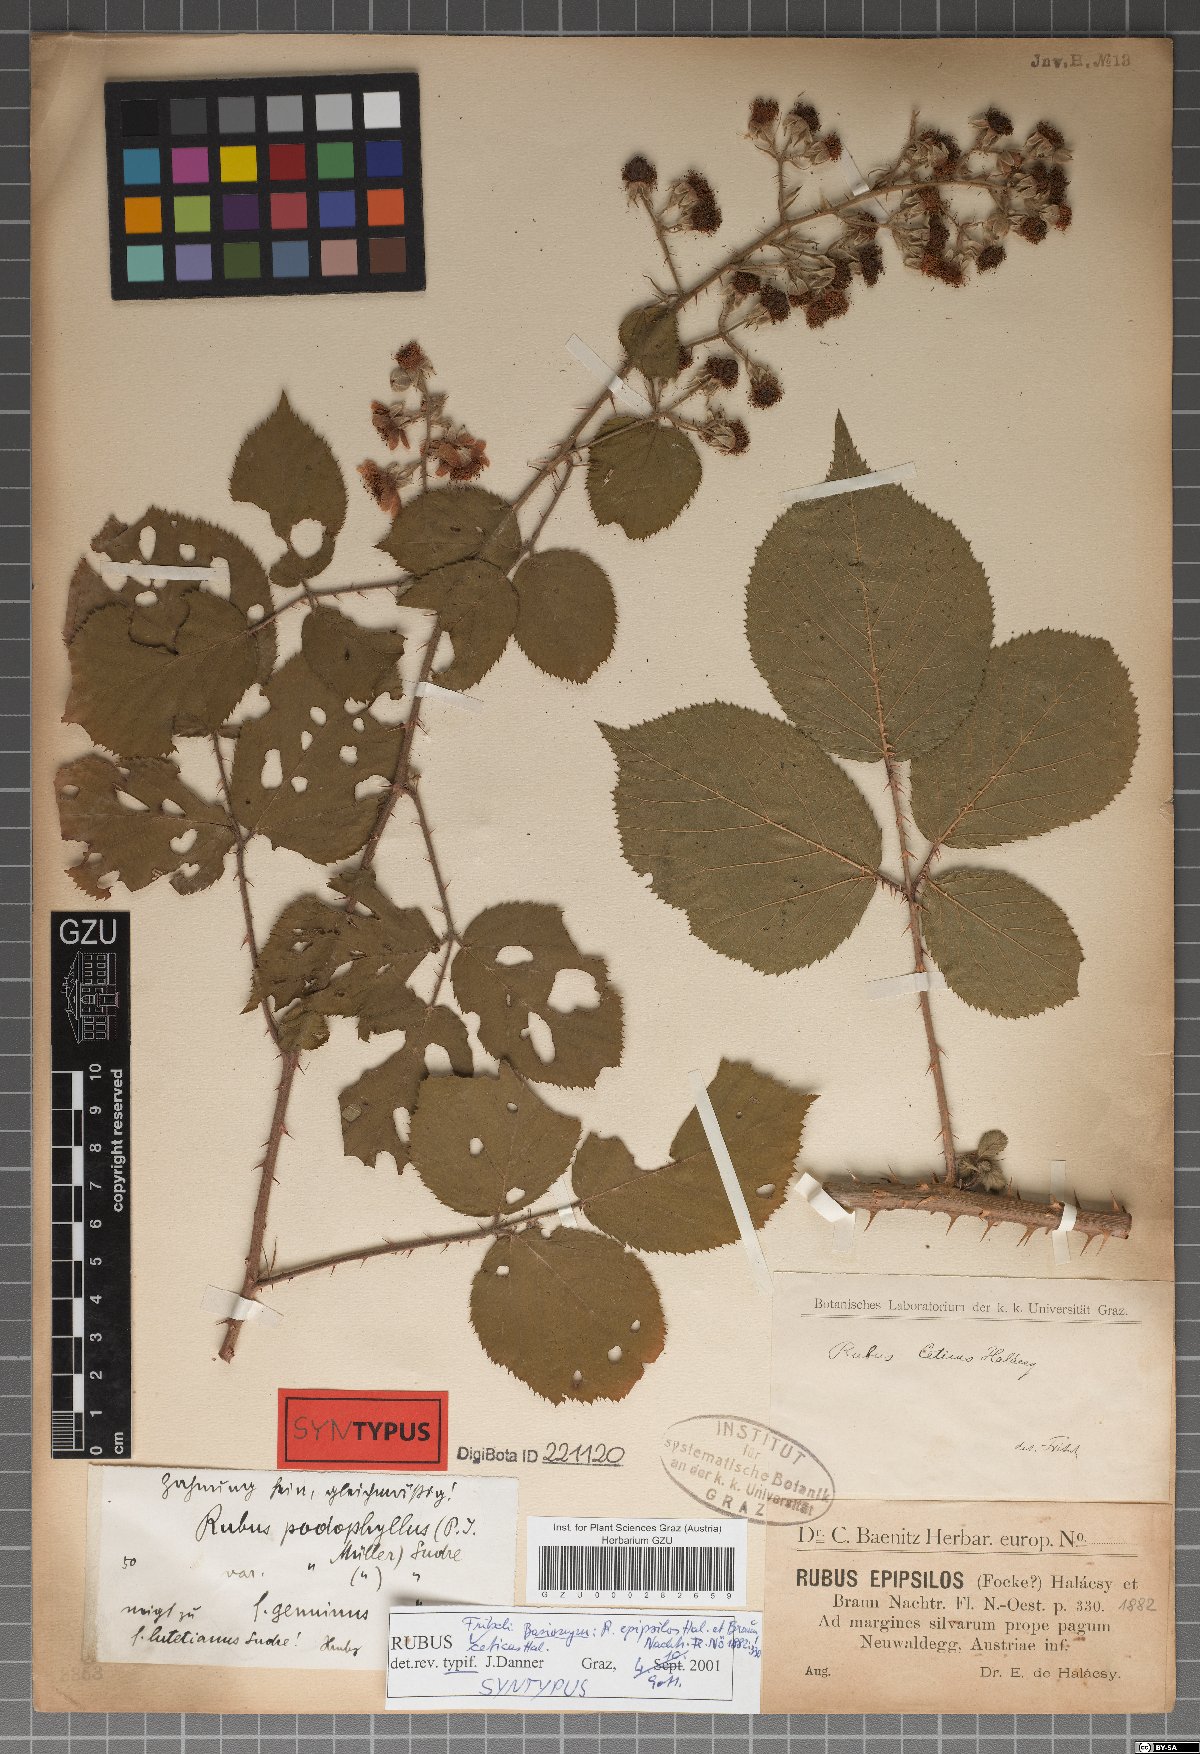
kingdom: Plantae
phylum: Tracheophyta
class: Magnoliopsida
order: Rosales
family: Rosaceae
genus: Rubus
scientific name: Rubus epipsilos
